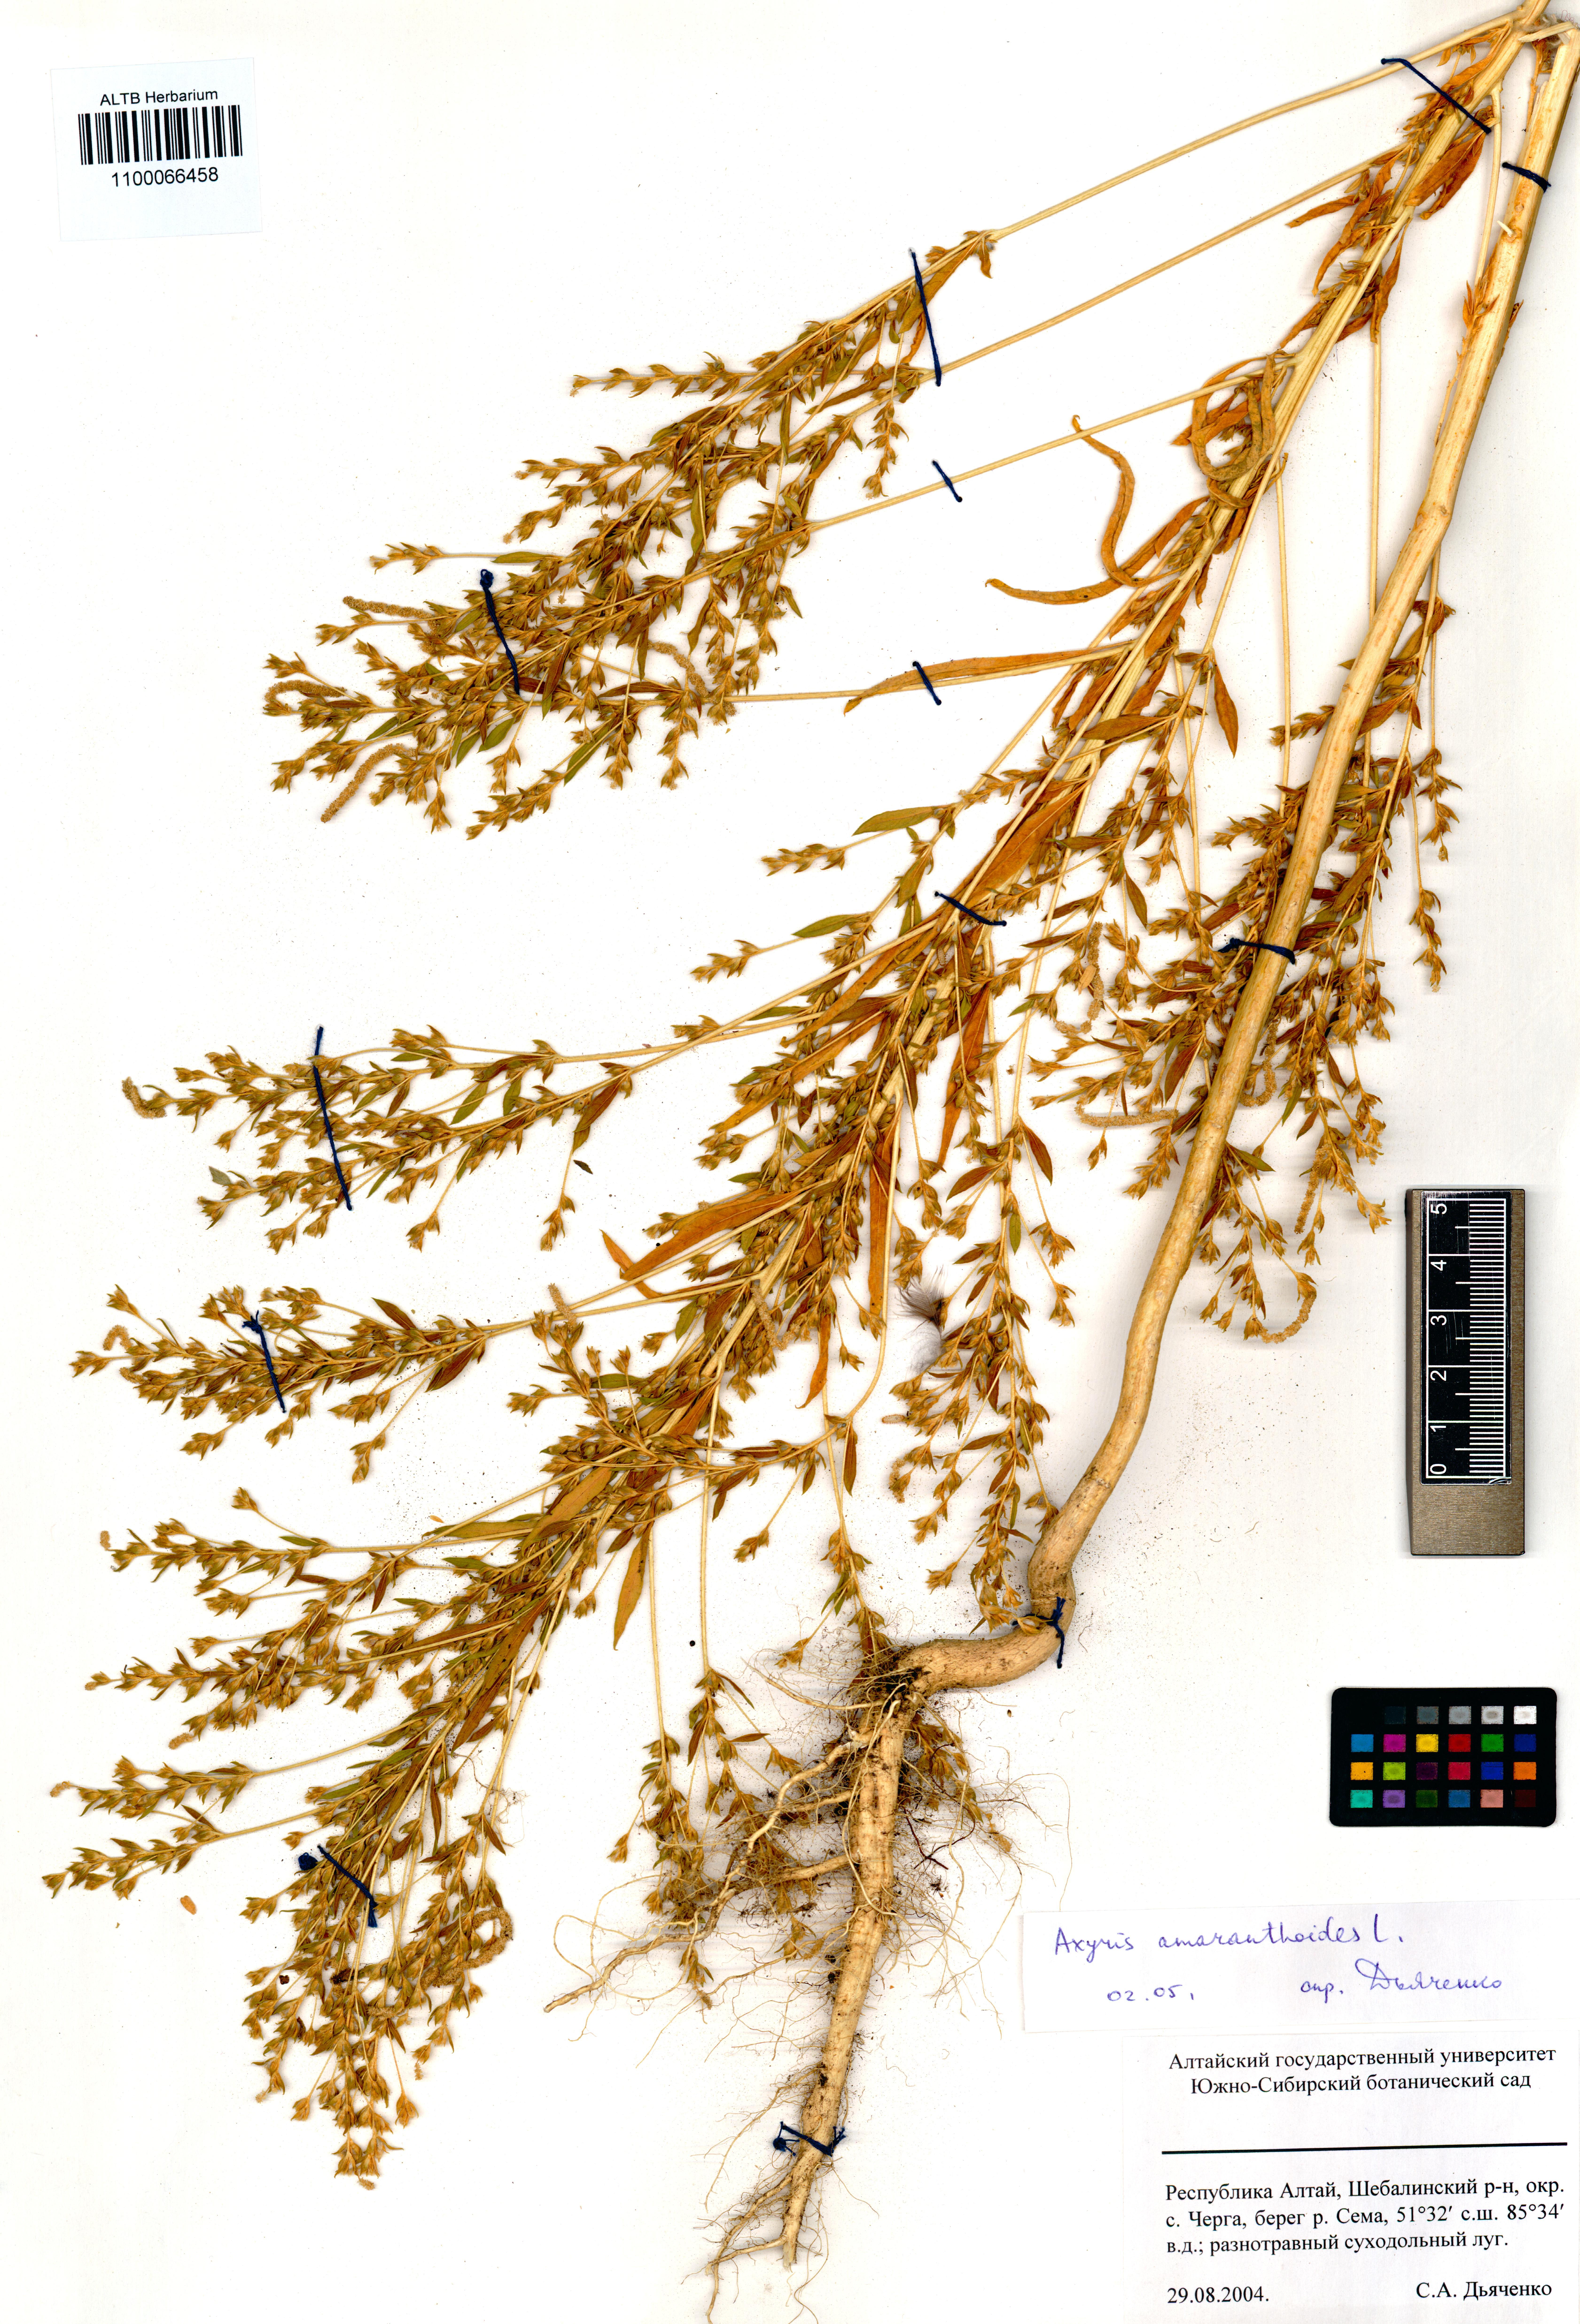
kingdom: Plantae
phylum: Tracheophyta
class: Magnoliopsida
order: Caryophyllales
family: Amaranthaceae
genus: Axyris
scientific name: Axyris amaranthoides
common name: Russian pigweed
